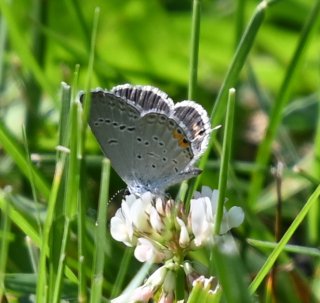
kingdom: Animalia
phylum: Arthropoda
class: Insecta
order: Lepidoptera
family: Lycaenidae
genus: Elkalyce
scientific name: Elkalyce comyntas
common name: Eastern Tailed-Blue
